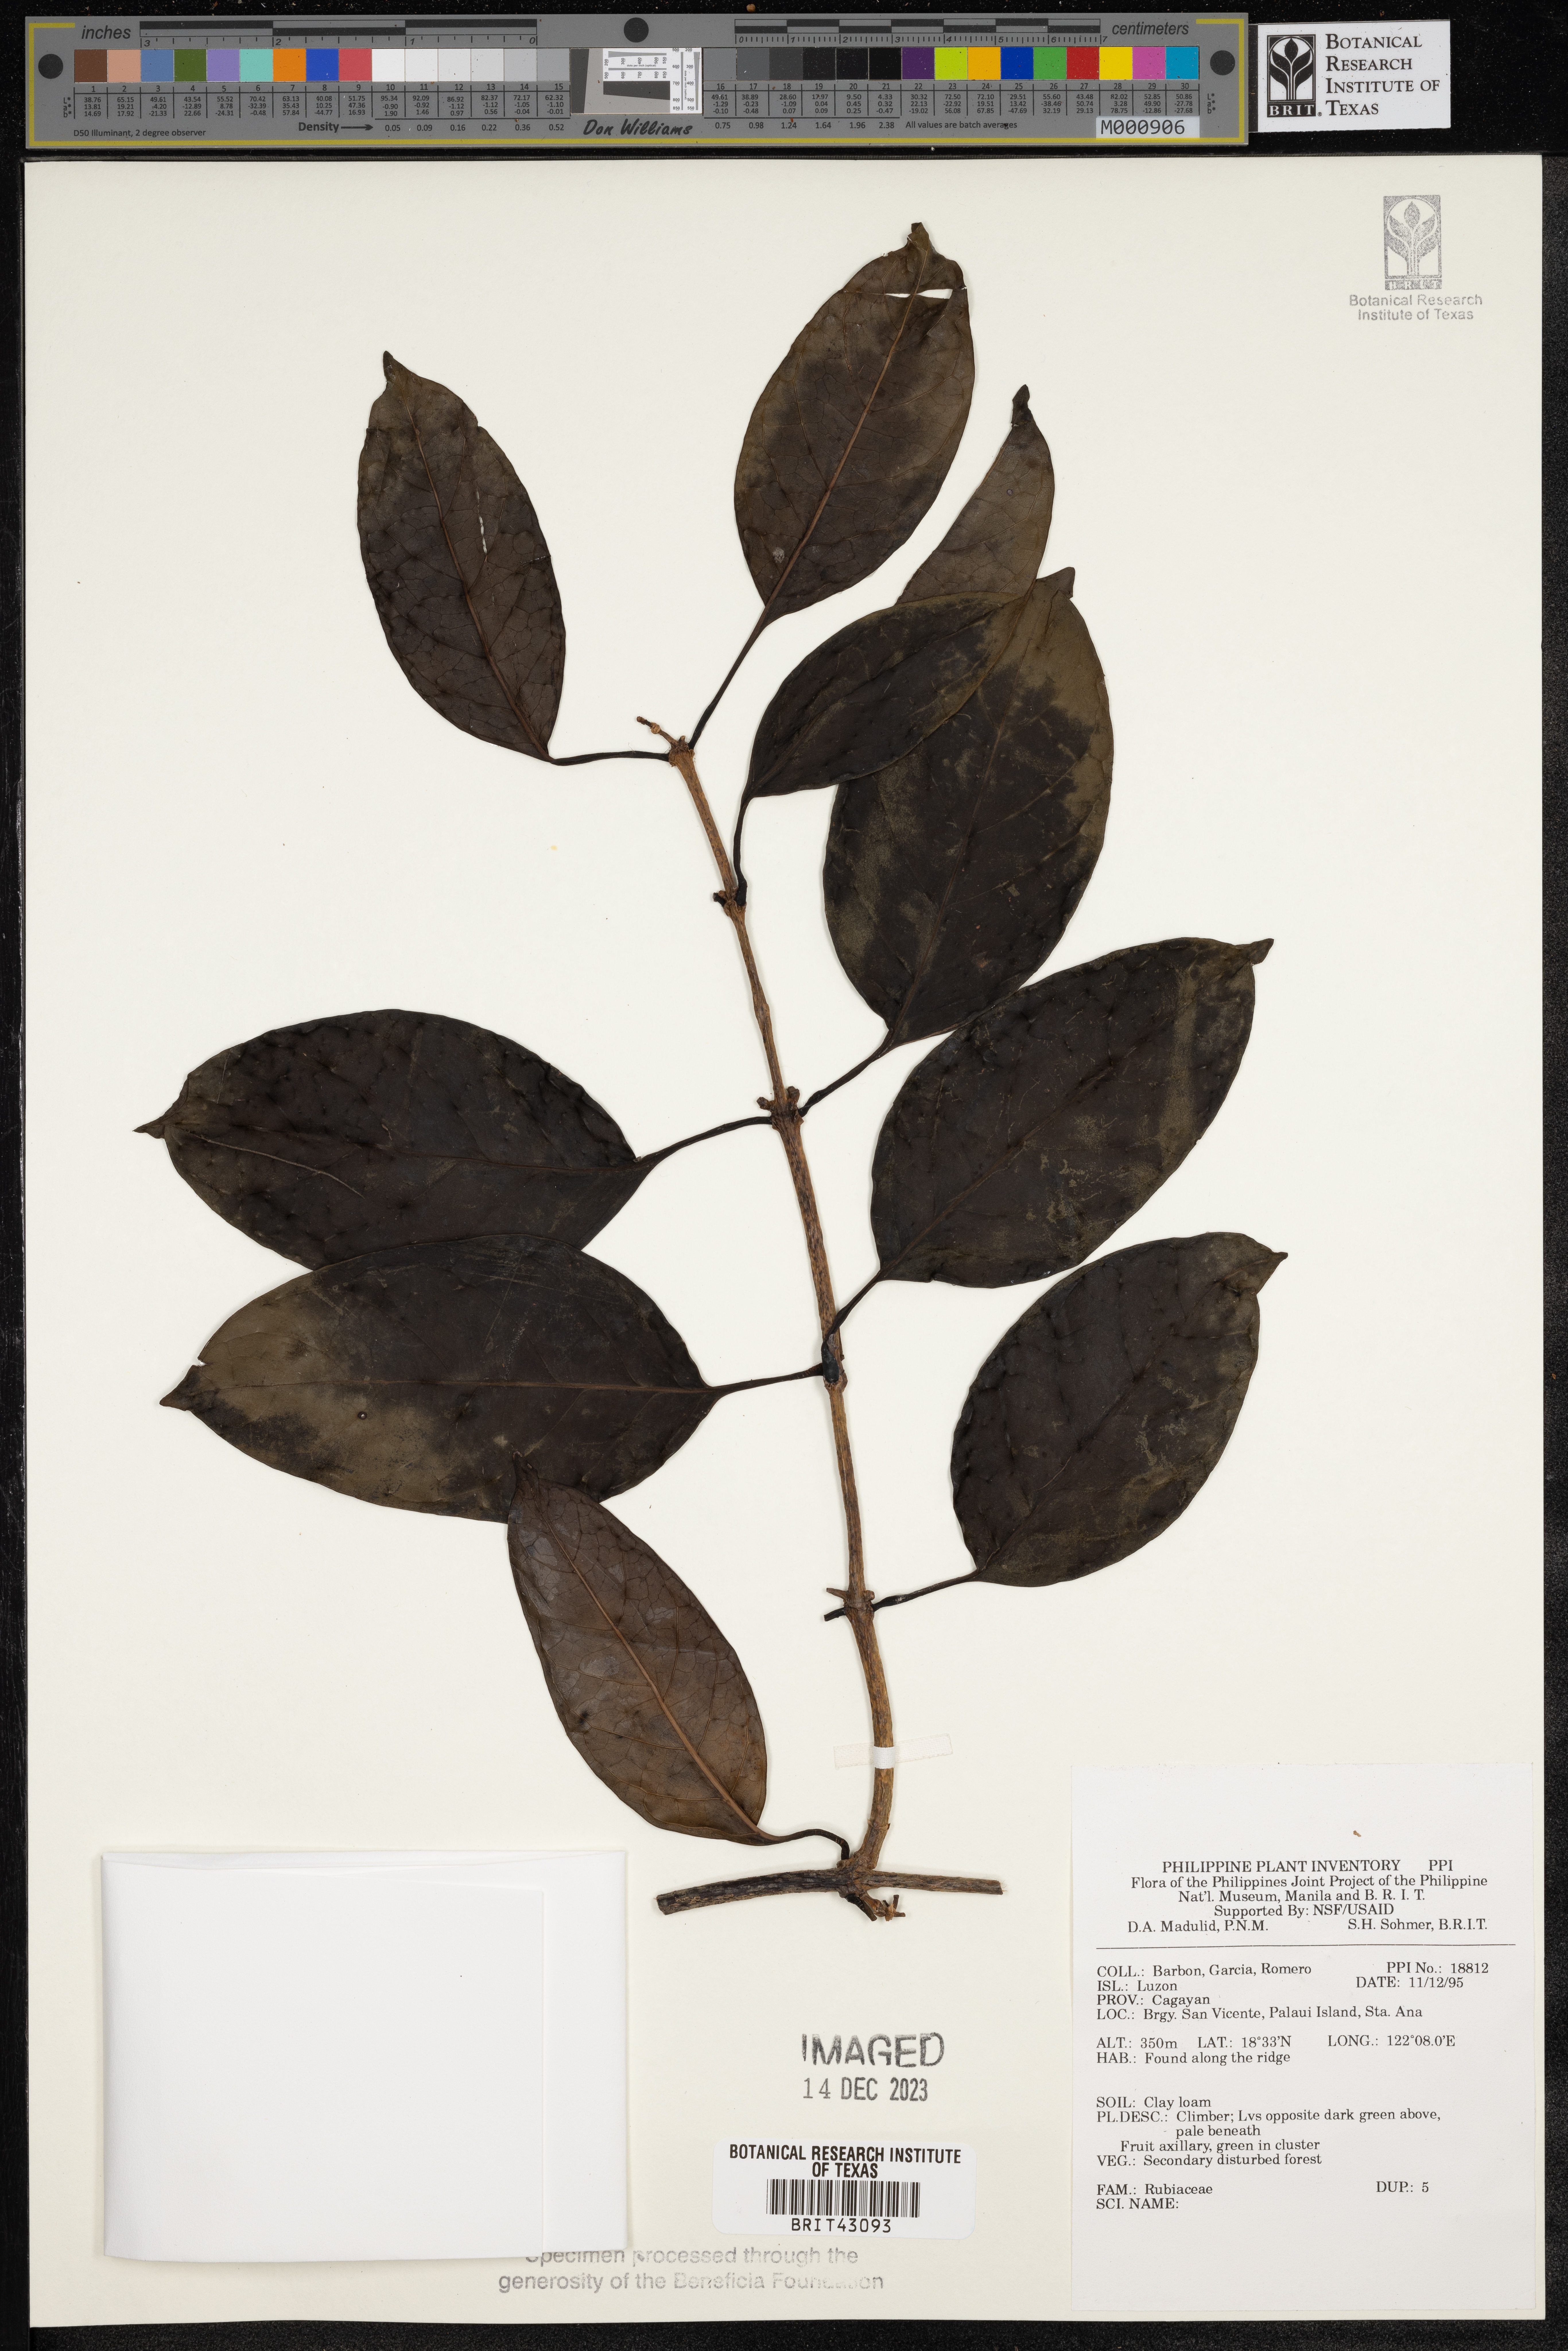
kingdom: Plantae
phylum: Tracheophyta
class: Magnoliopsida
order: Gentianales
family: Rubiaceae
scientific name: Rubiaceae
